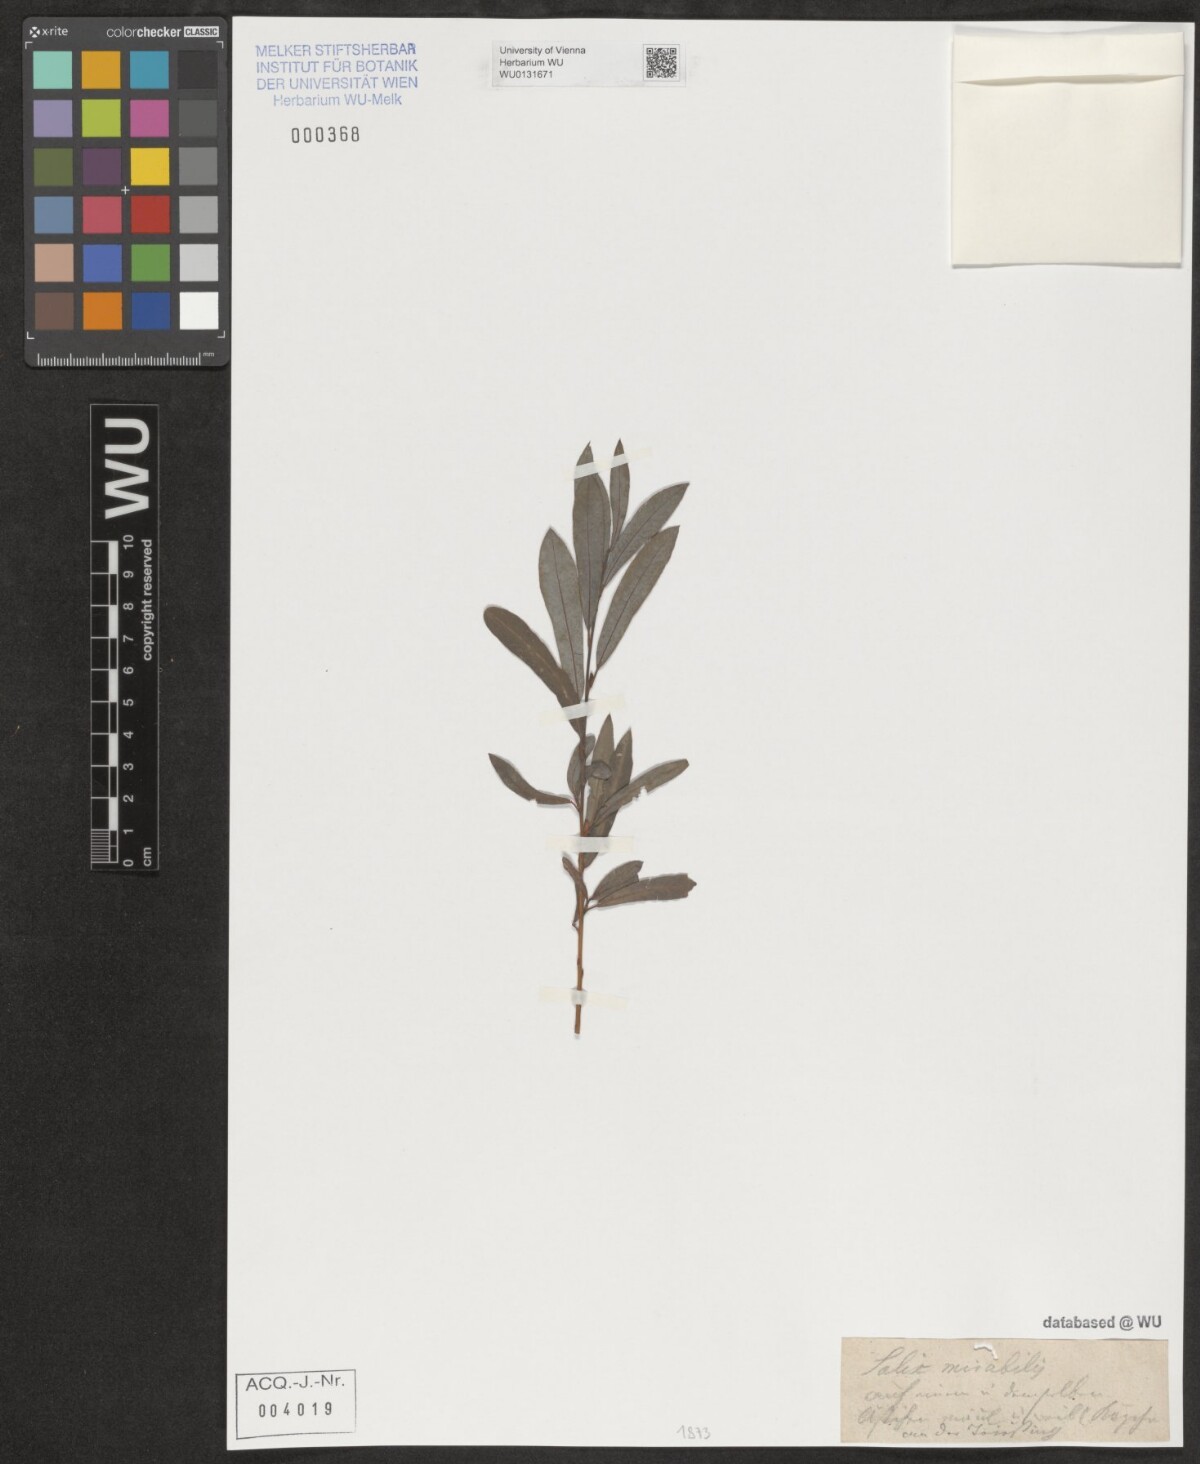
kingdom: Plantae
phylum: Tracheophyta
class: Magnoliopsida
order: Malpighiales
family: Salicaceae
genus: Salix
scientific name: Salix rubra
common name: Green-leaf willow
